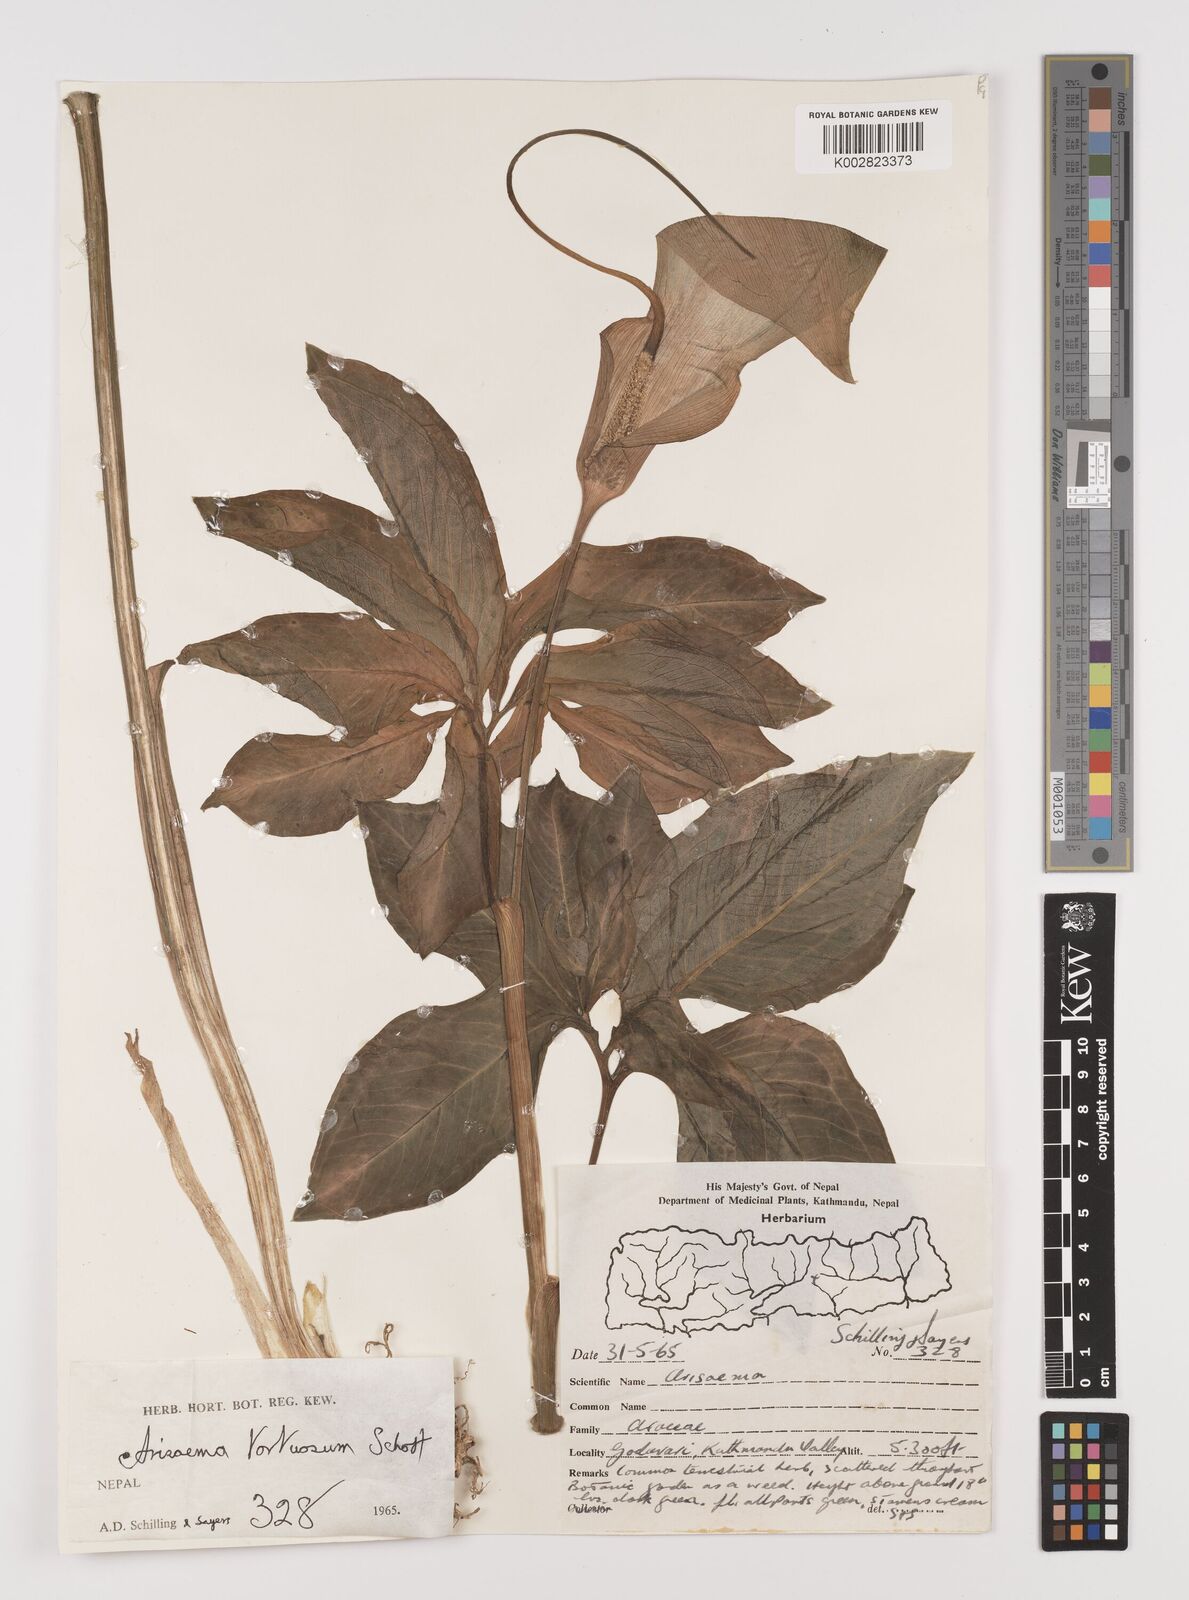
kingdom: Plantae
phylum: Tracheophyta
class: Liliopsida
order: Alismatales
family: Araceae
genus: Arisaema
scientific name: Arisaema tortuosum
